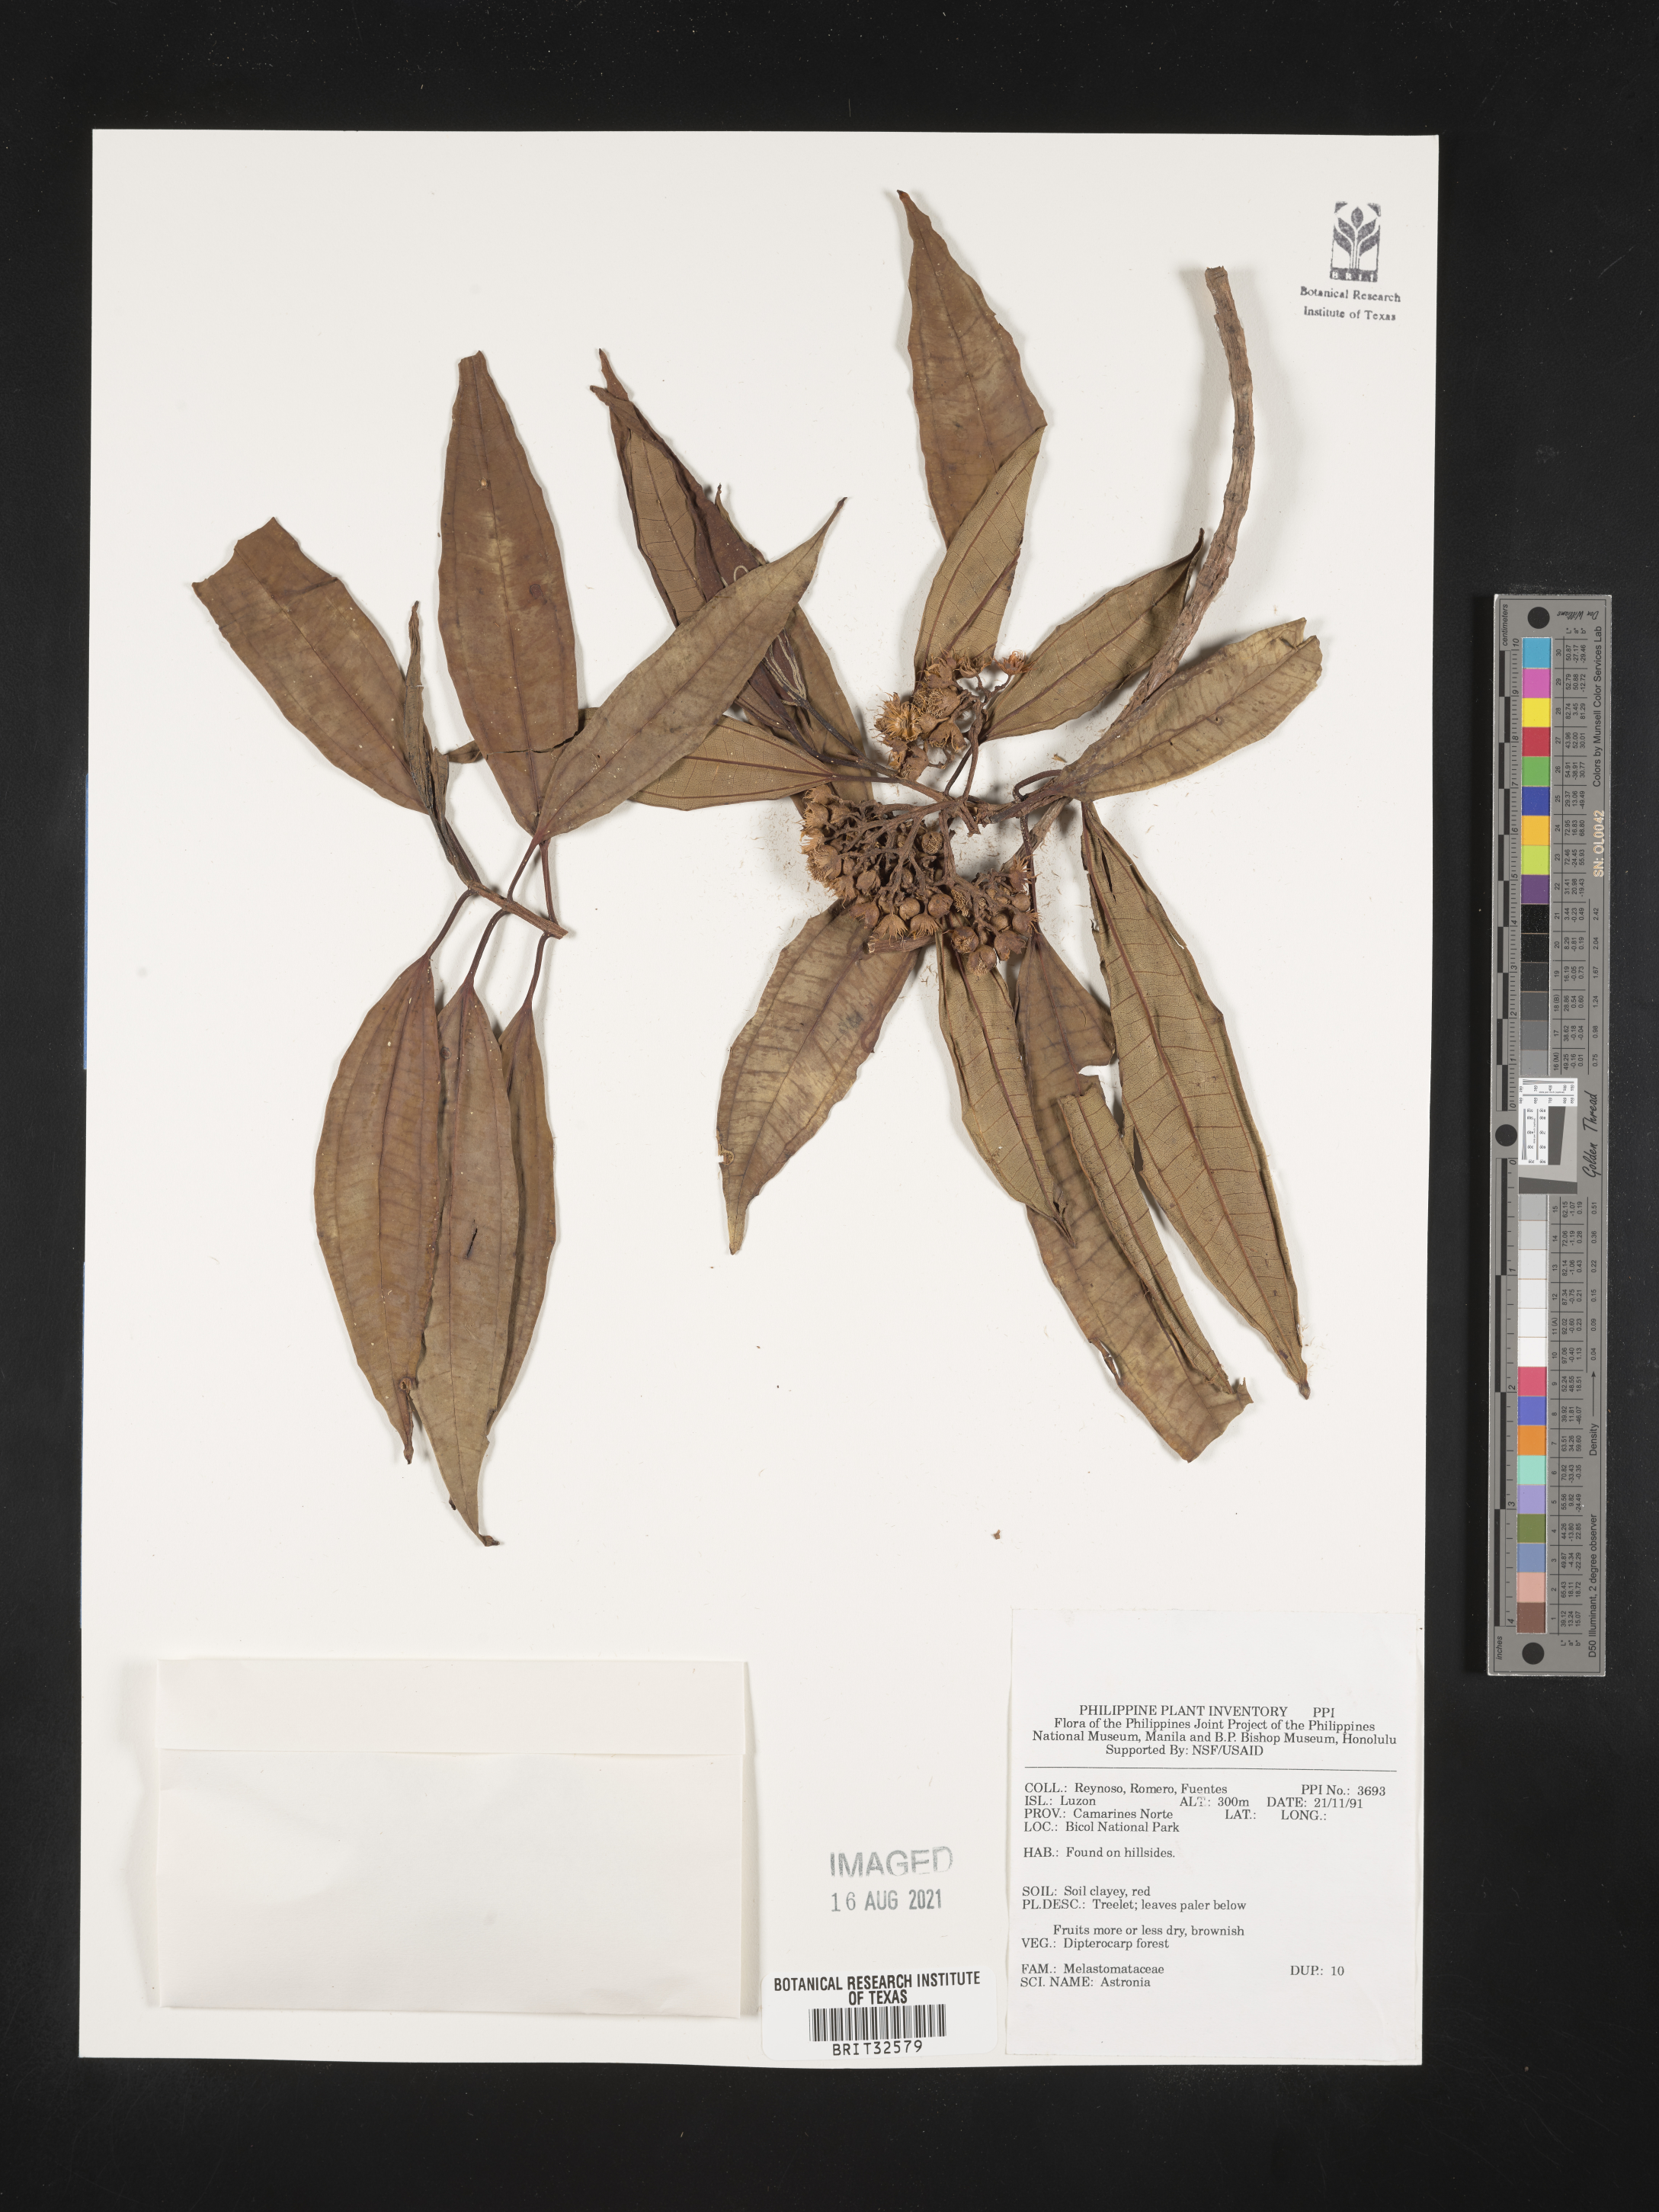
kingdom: Plantae
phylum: Tracheophyta
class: Magnoliopsida
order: Myrtales
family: Melastomataceae
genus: Astronia
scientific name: Astronia
